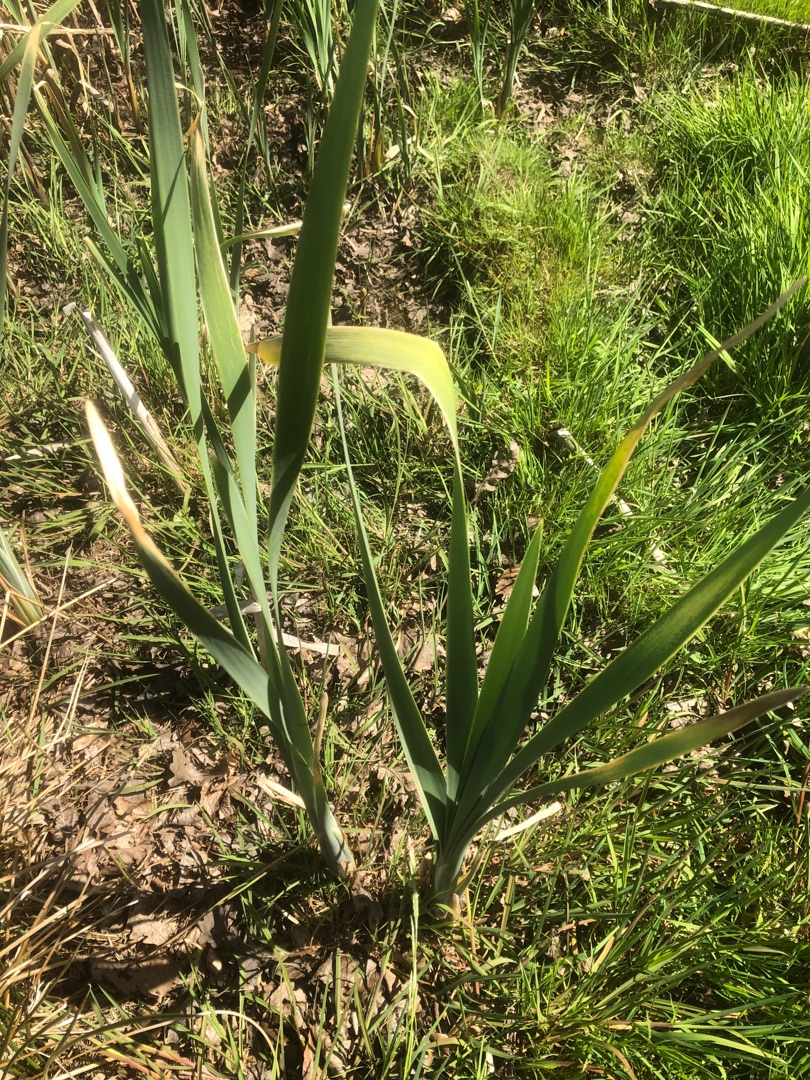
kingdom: Plantae
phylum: Tracheophyta
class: Liliopsida
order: Poales
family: Typhaceae
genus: Typha
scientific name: Typha latifolia
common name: Bredbladet dunhammer
